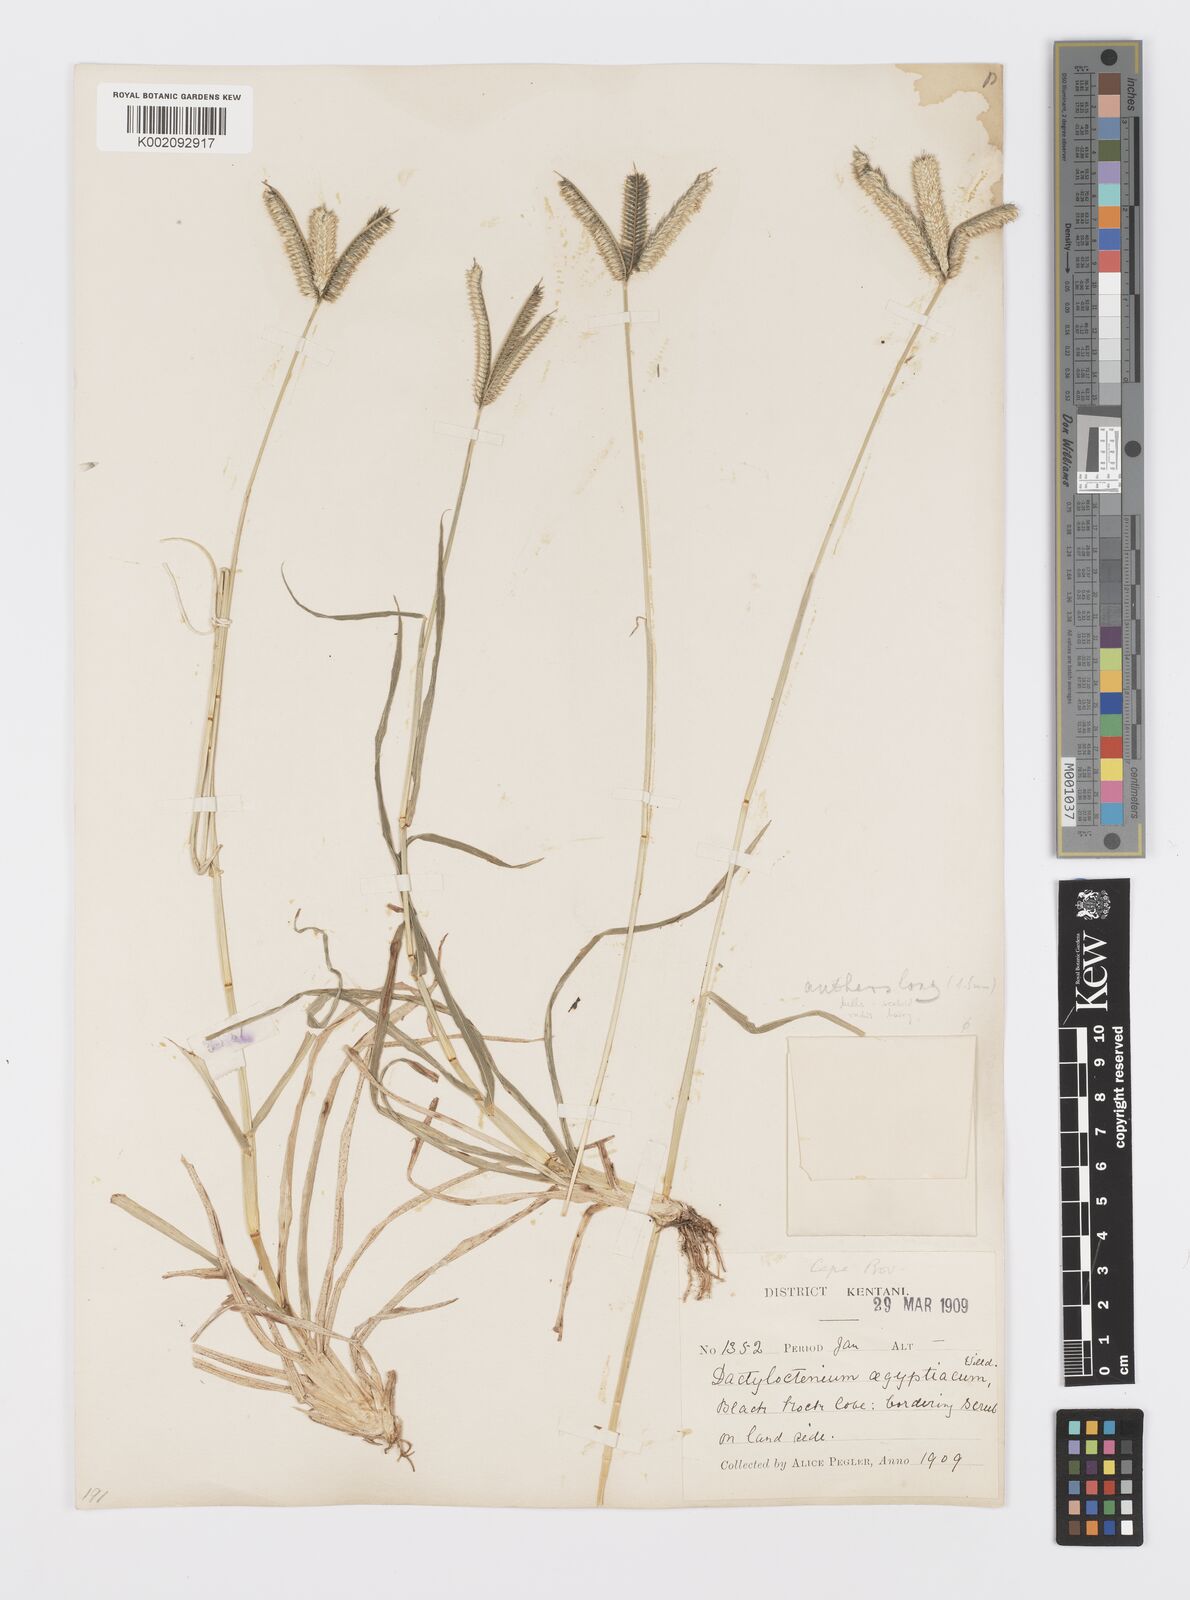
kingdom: Plantae
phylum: Tracheophyta
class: Liliopsida
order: Poales
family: Poaceae
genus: Dactyloctenium
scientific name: Dactyloctenium australe
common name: Durban grass
